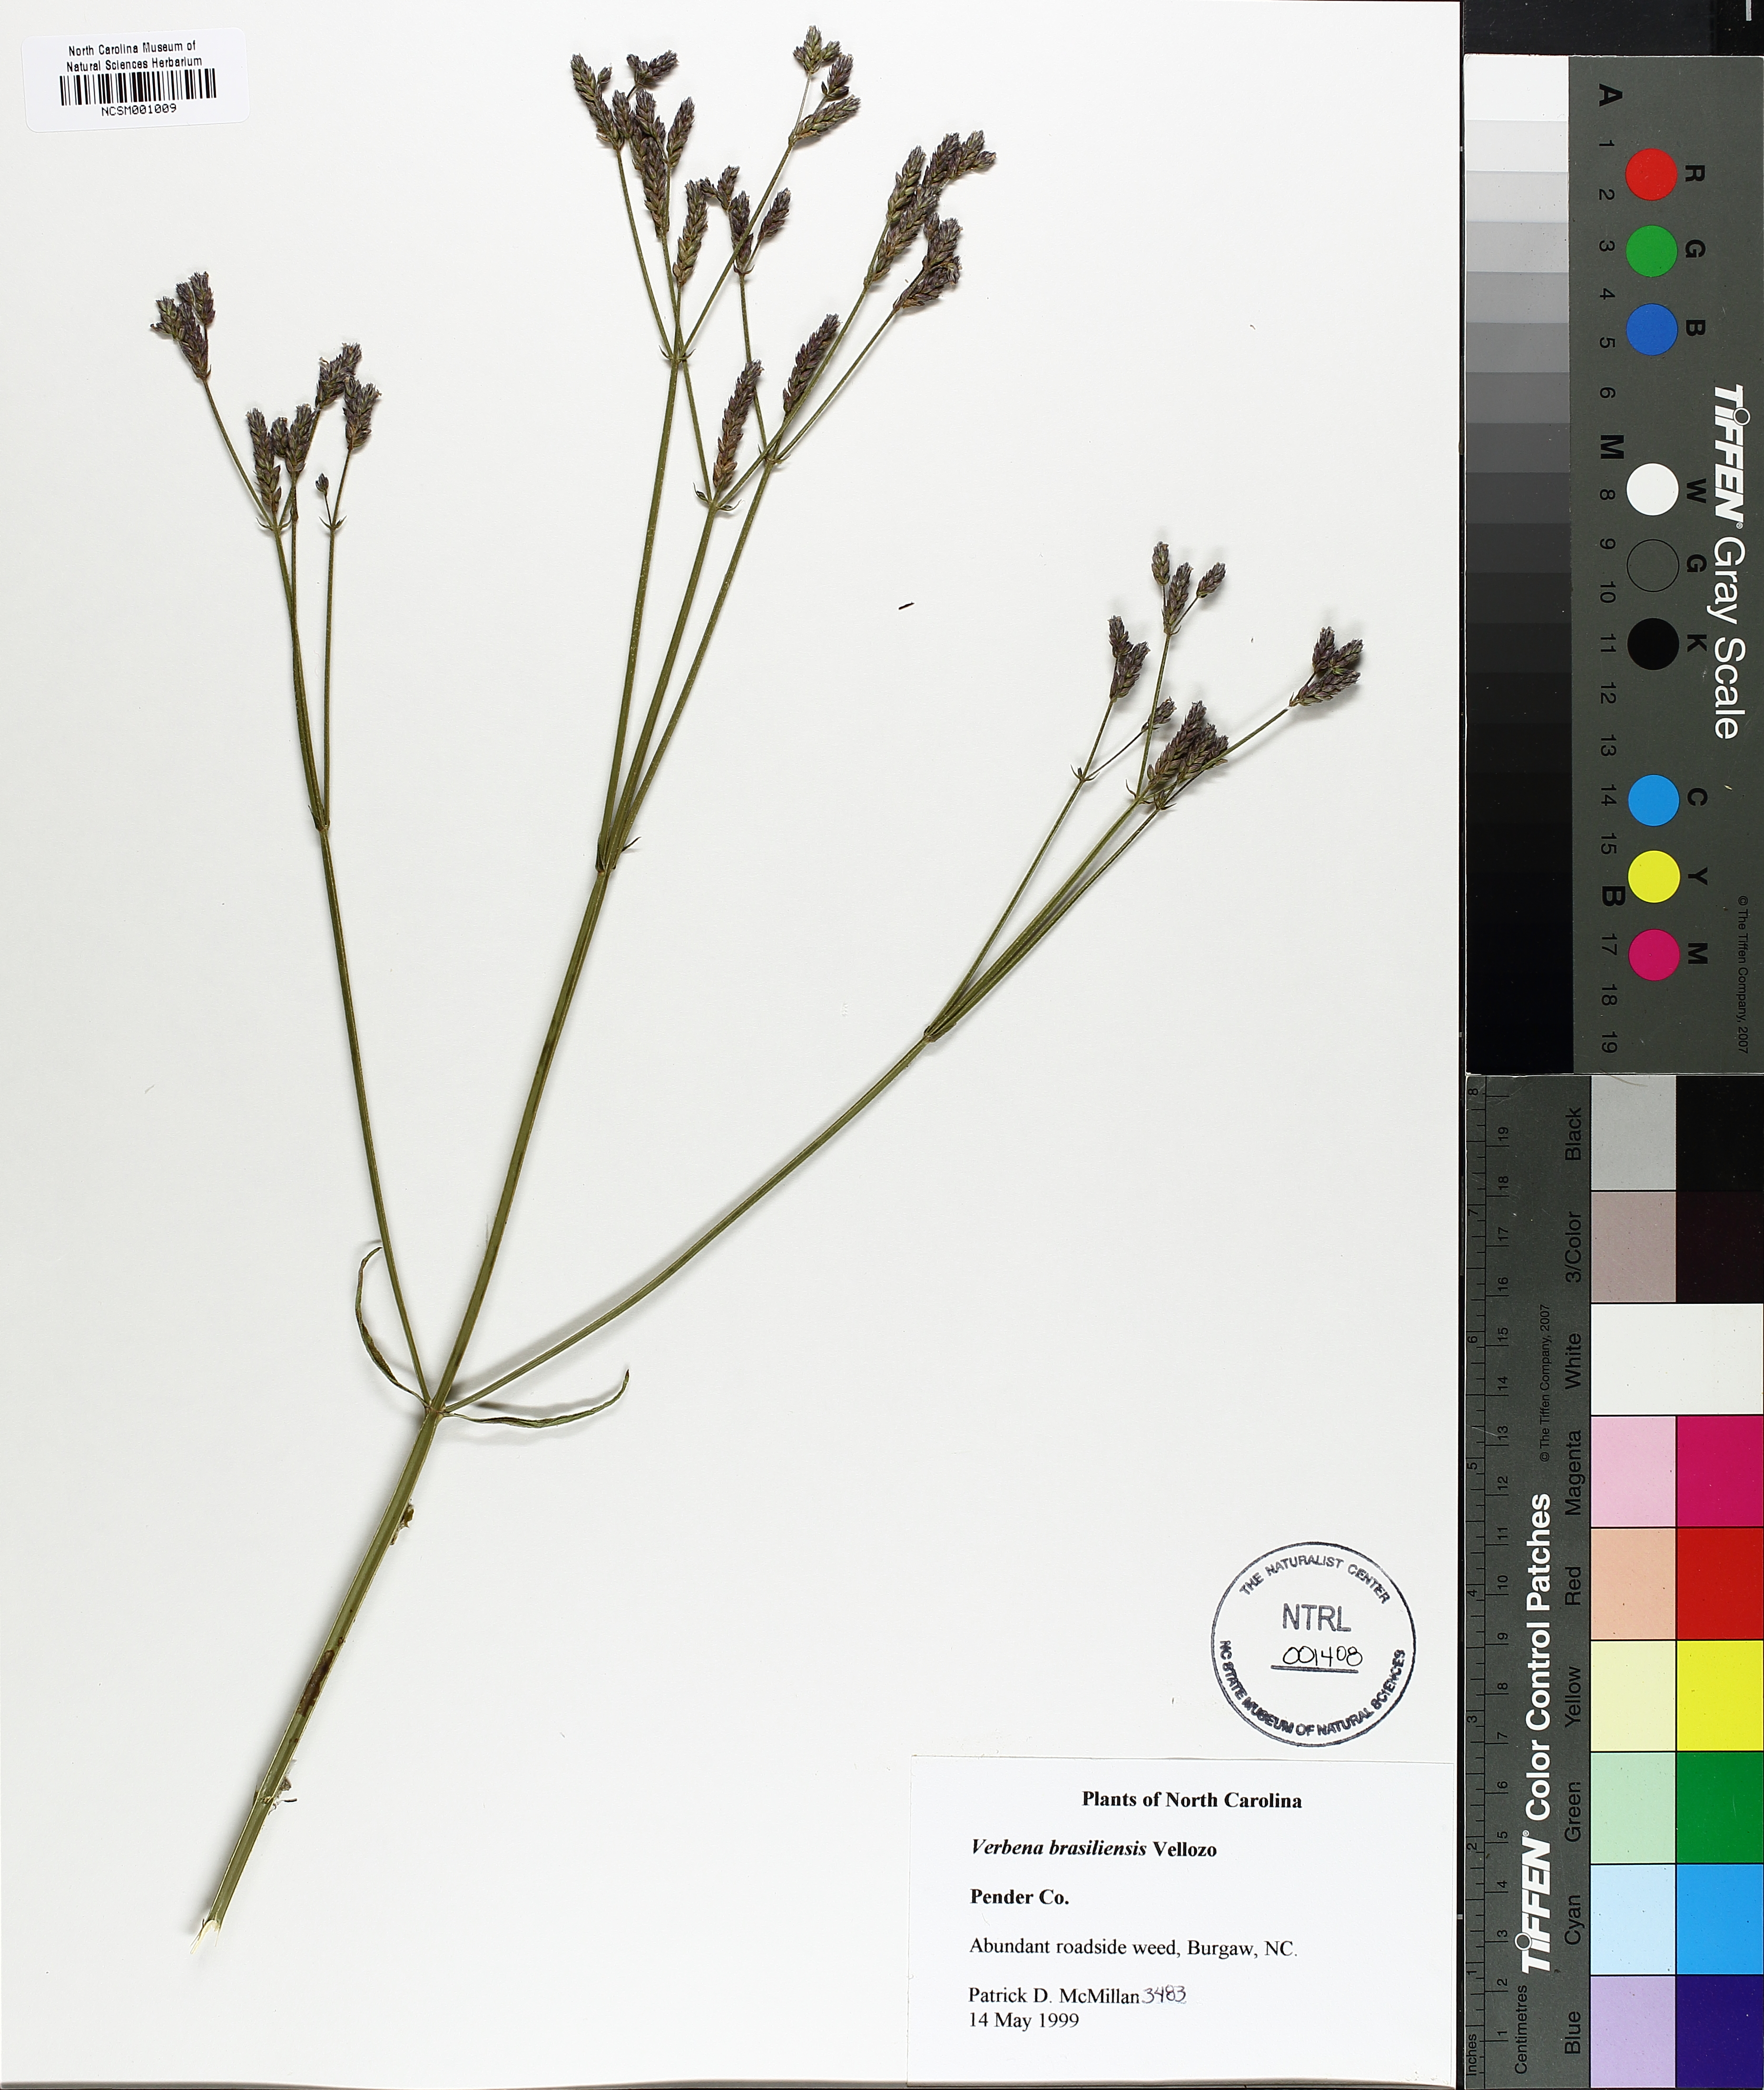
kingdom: Plantae
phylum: Tracheophyta
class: Magnoliopsida
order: Lamiales
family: Verbenaceae
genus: Verbena
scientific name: Verbena brasiliensis
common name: Brazilian vervain
